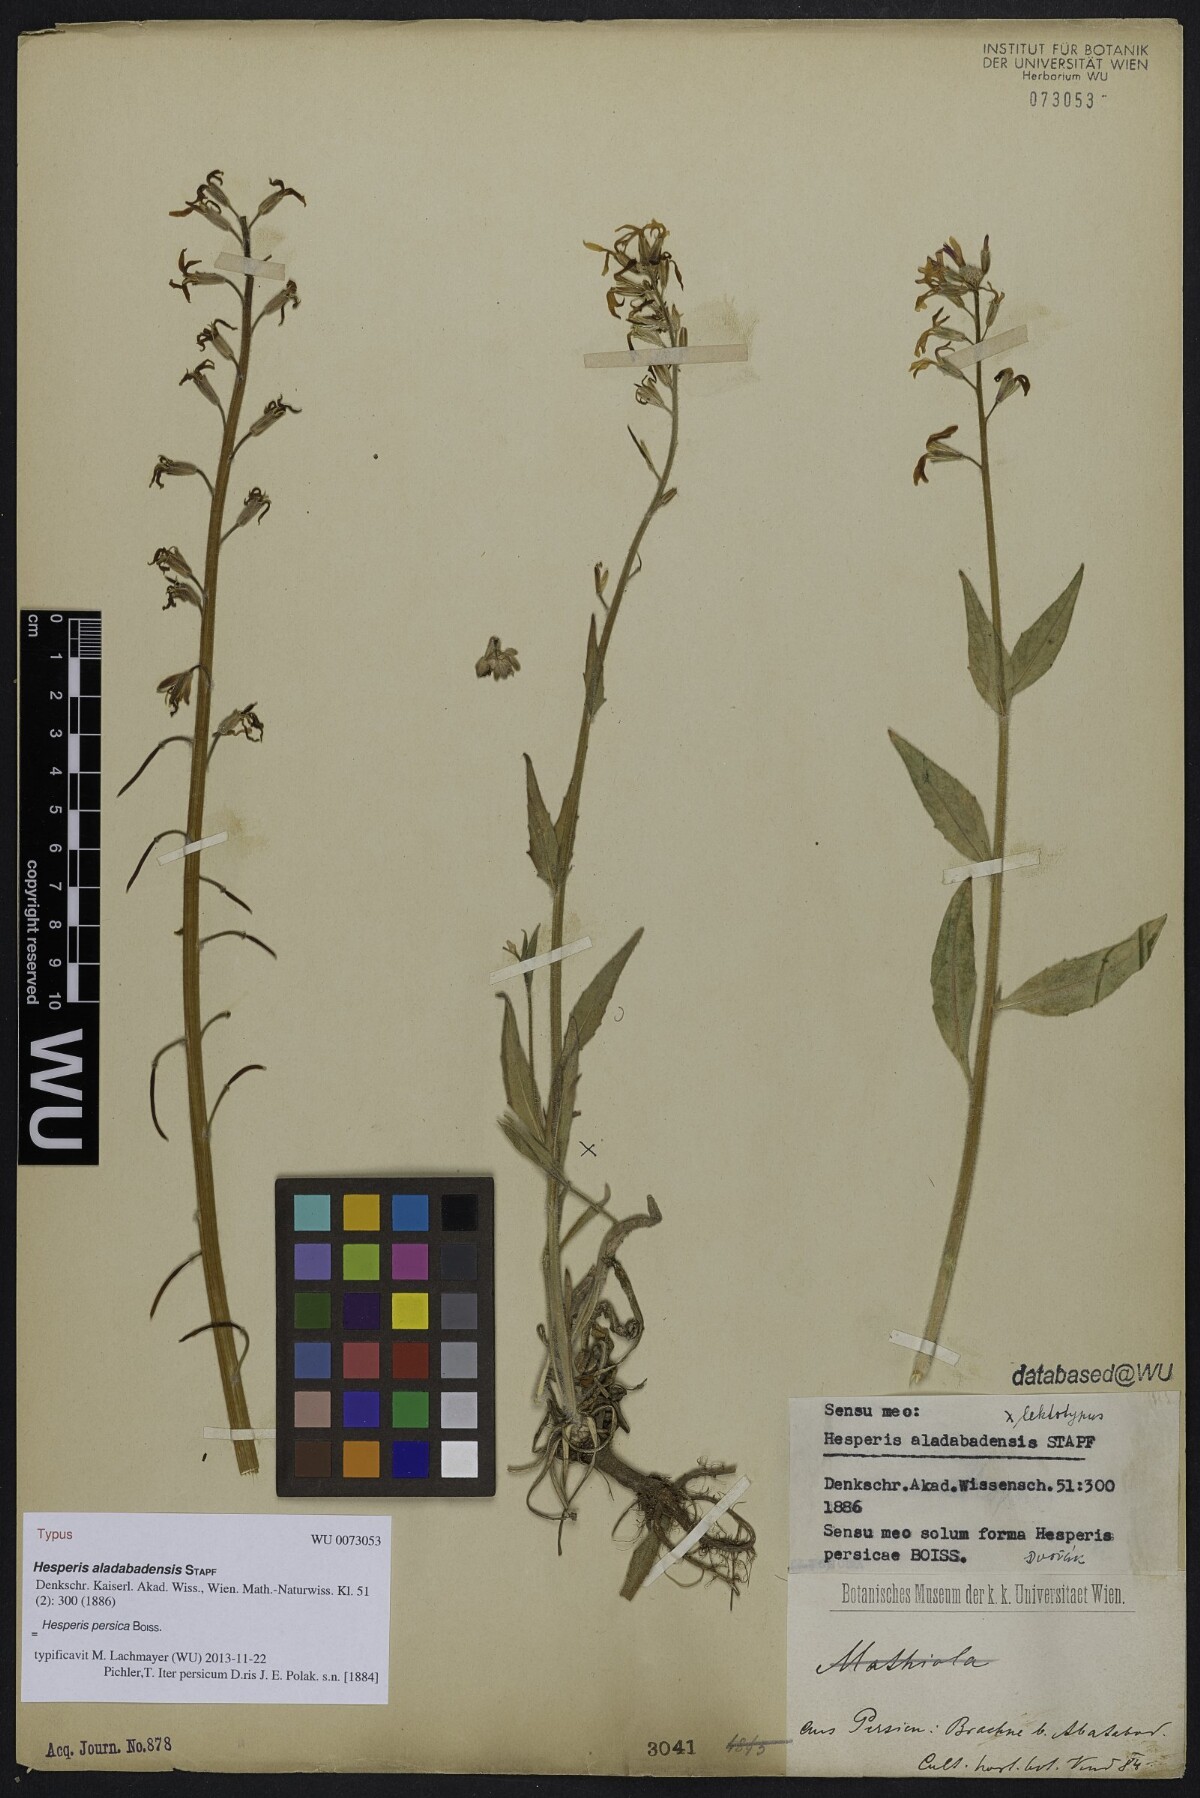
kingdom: Plantae
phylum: Tracheophyta
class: Magnoliopsida
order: Brassicales
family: Brassicaceae
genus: Hesperis
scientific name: Hesperis persica
